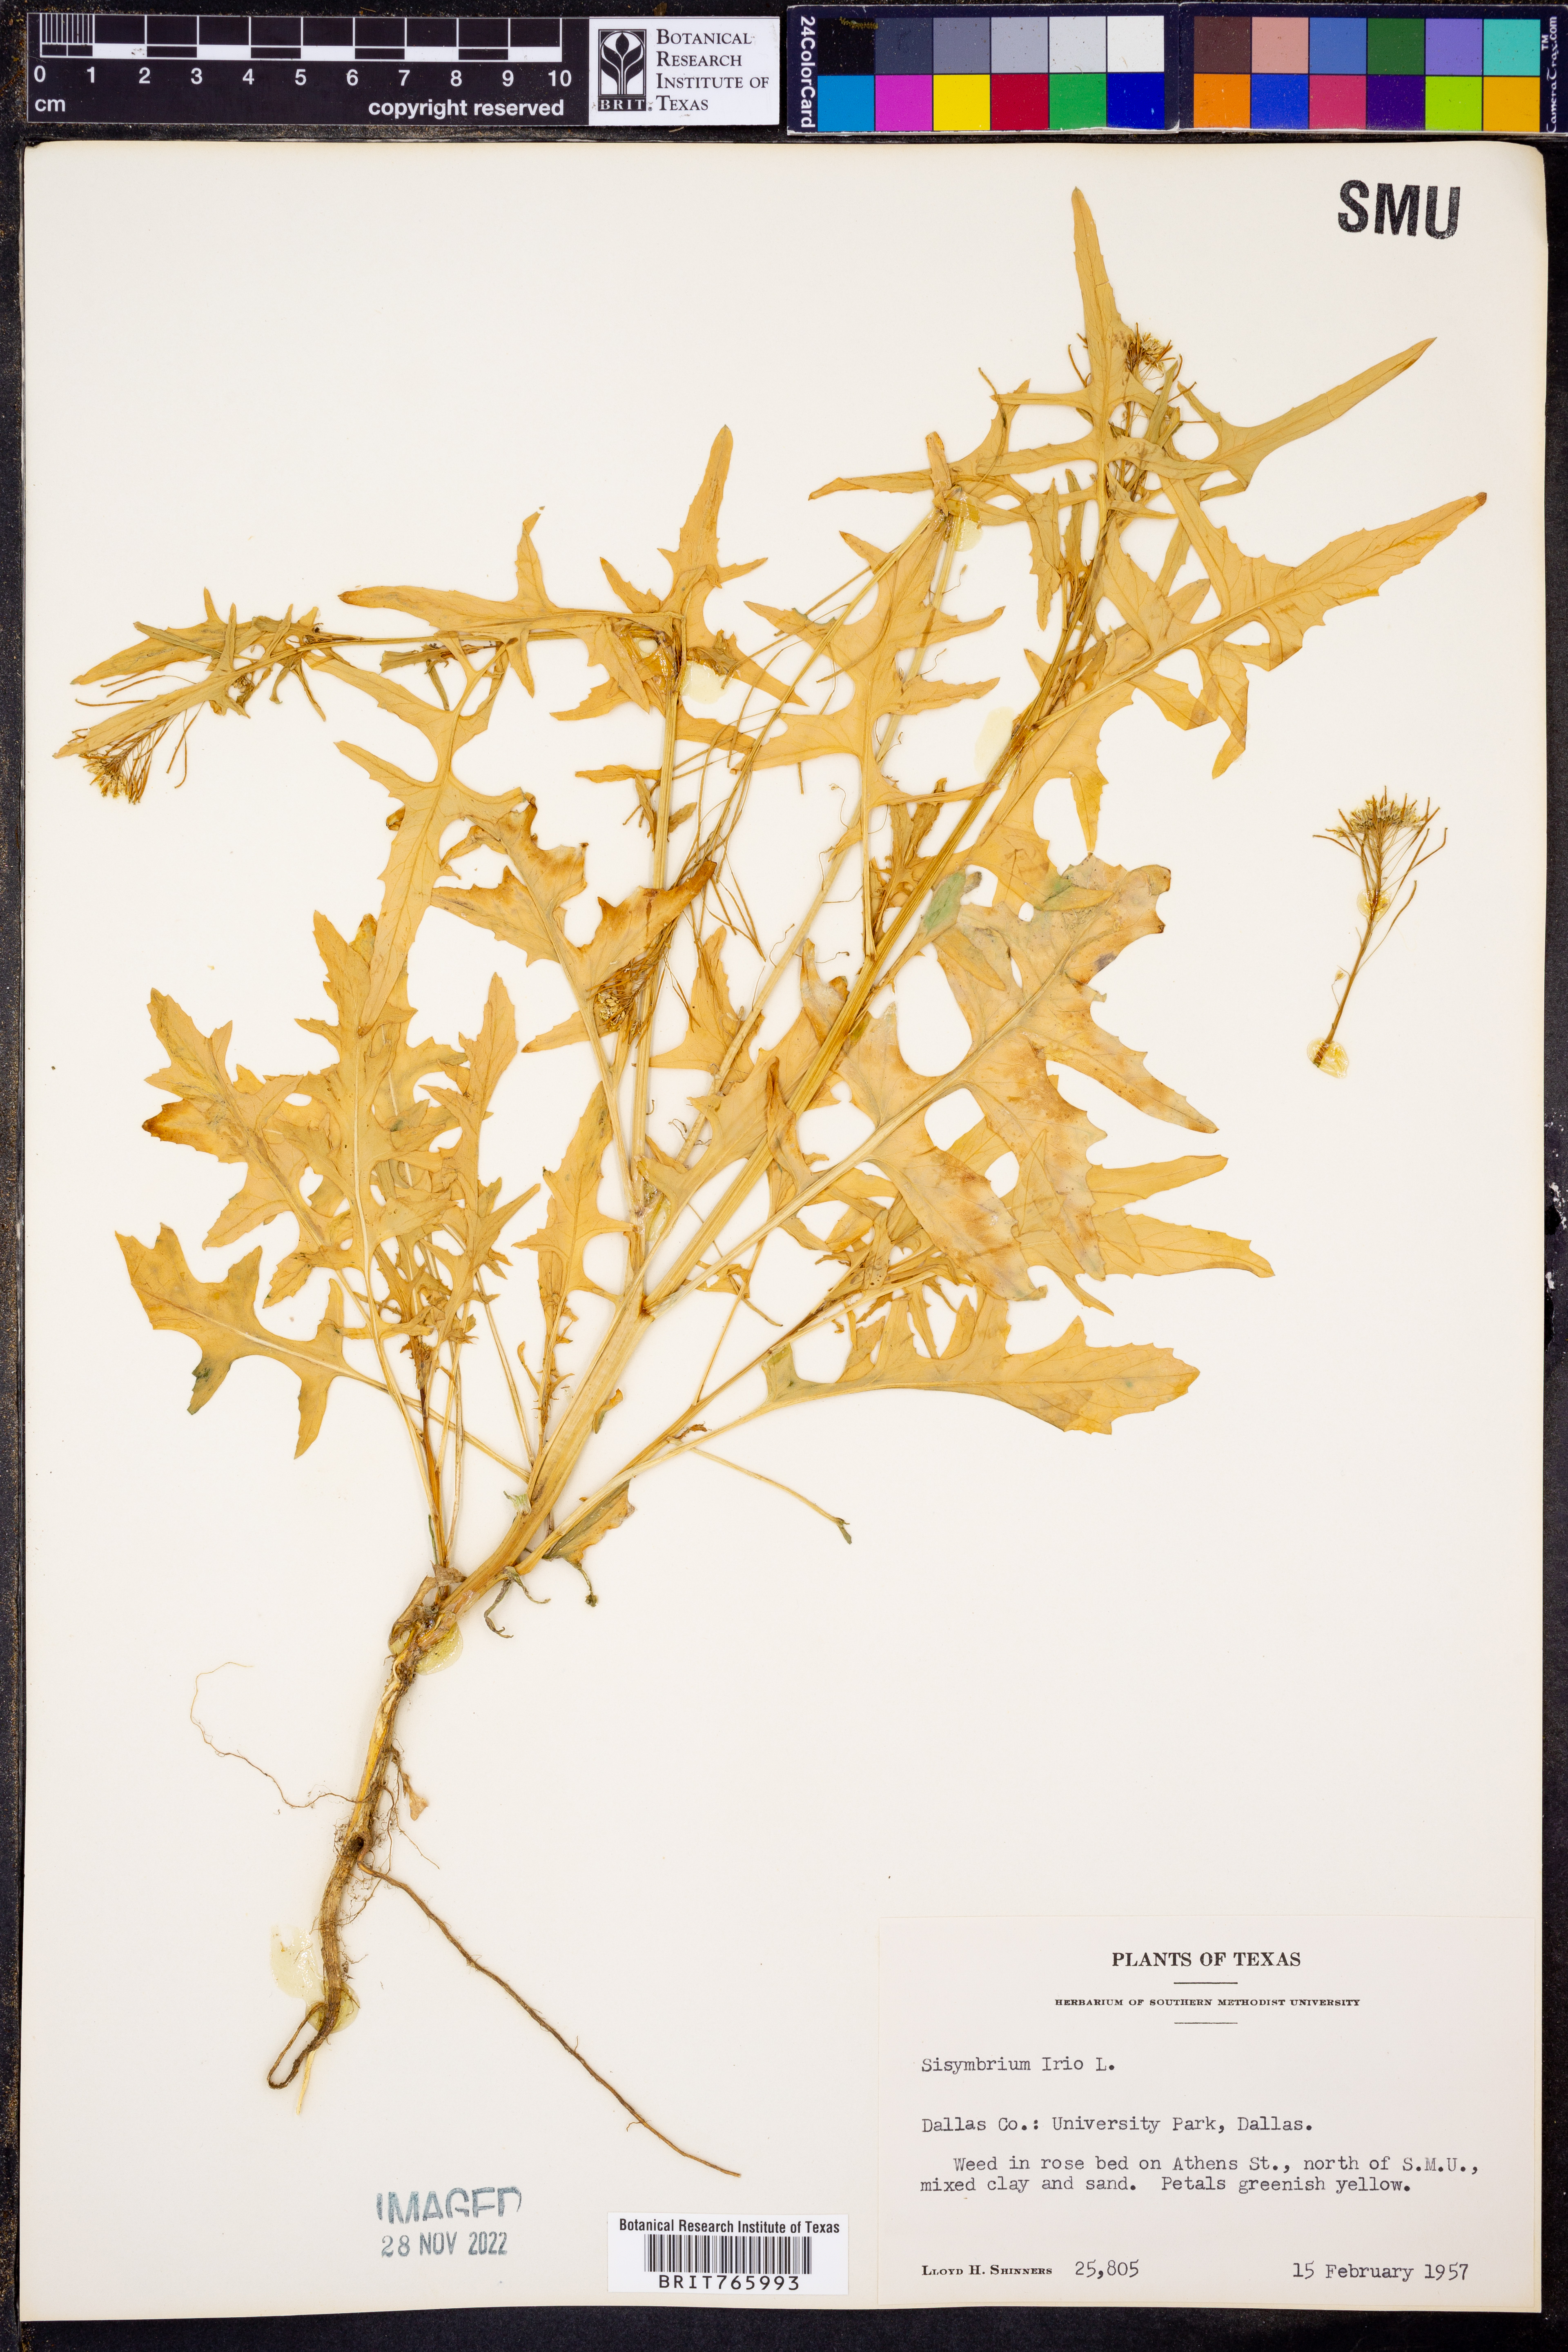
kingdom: Plantae
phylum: Tracheophyta
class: Magnoliopsida
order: Brassicales
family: Brassicaceae
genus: Sisymbrium
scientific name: Sisymbrium irio
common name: London rocket
